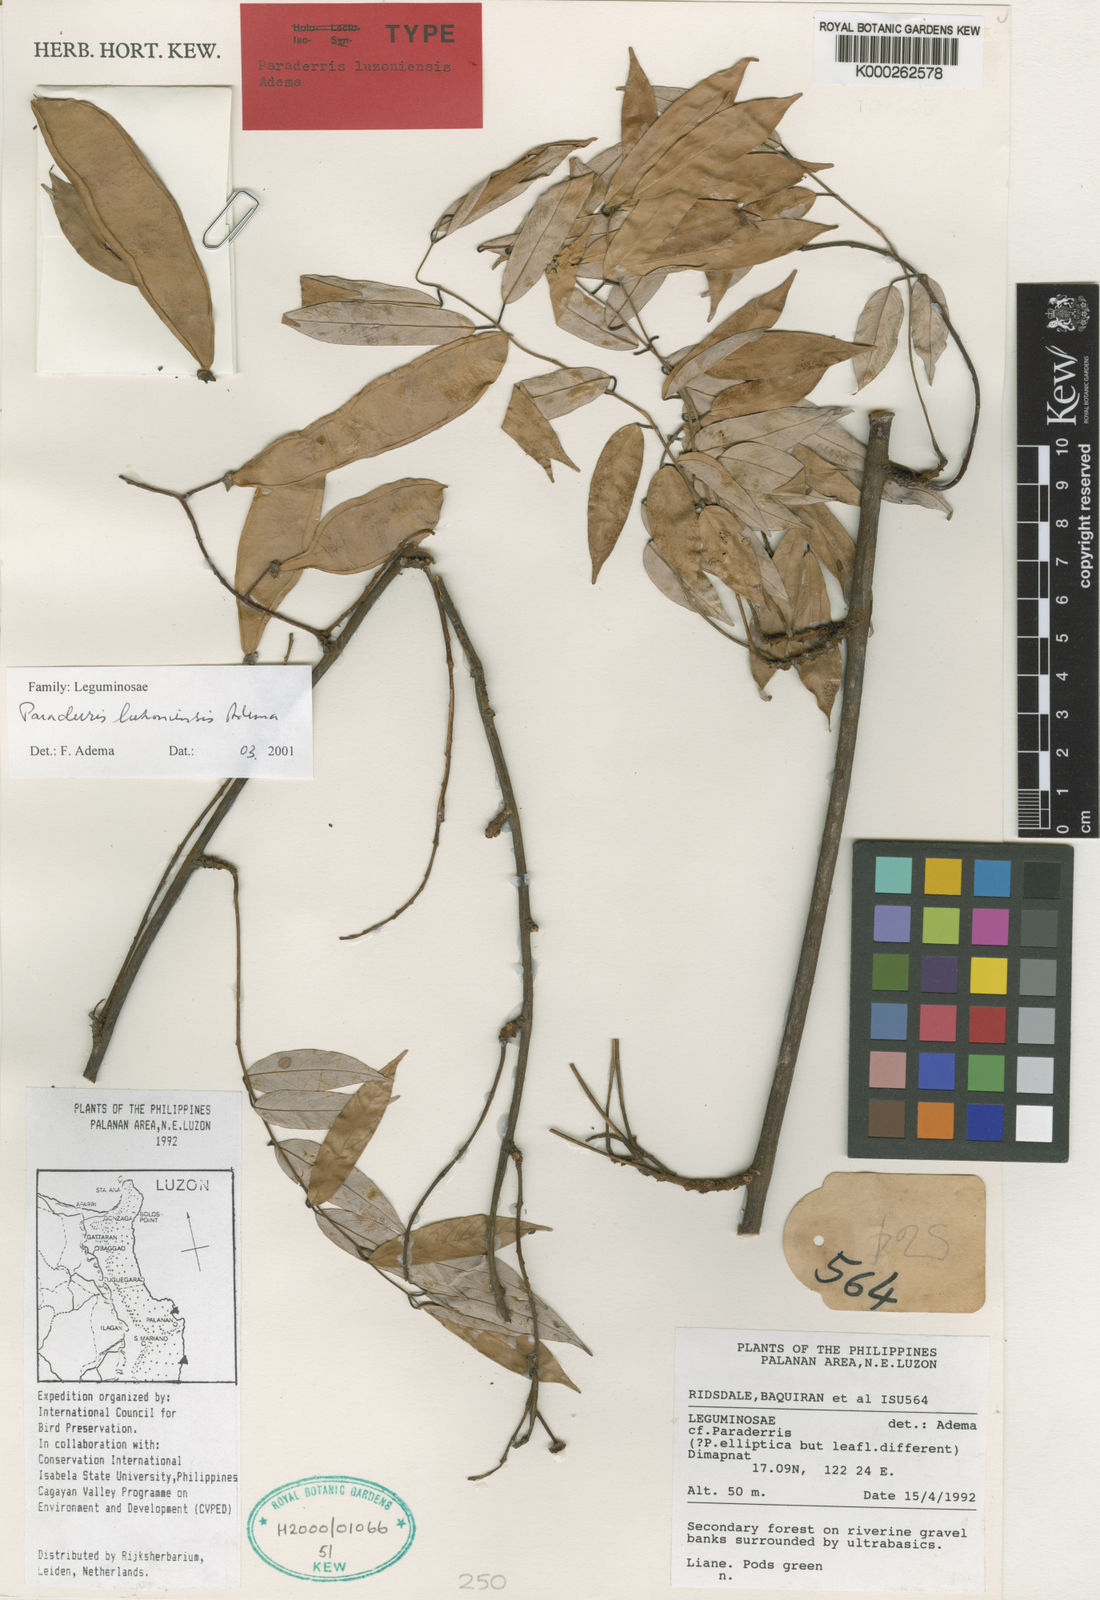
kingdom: Plantae
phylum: Tracheophyta
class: Magnoliopsida
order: Fabales
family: Fabaceae
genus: Derris
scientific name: Derris
